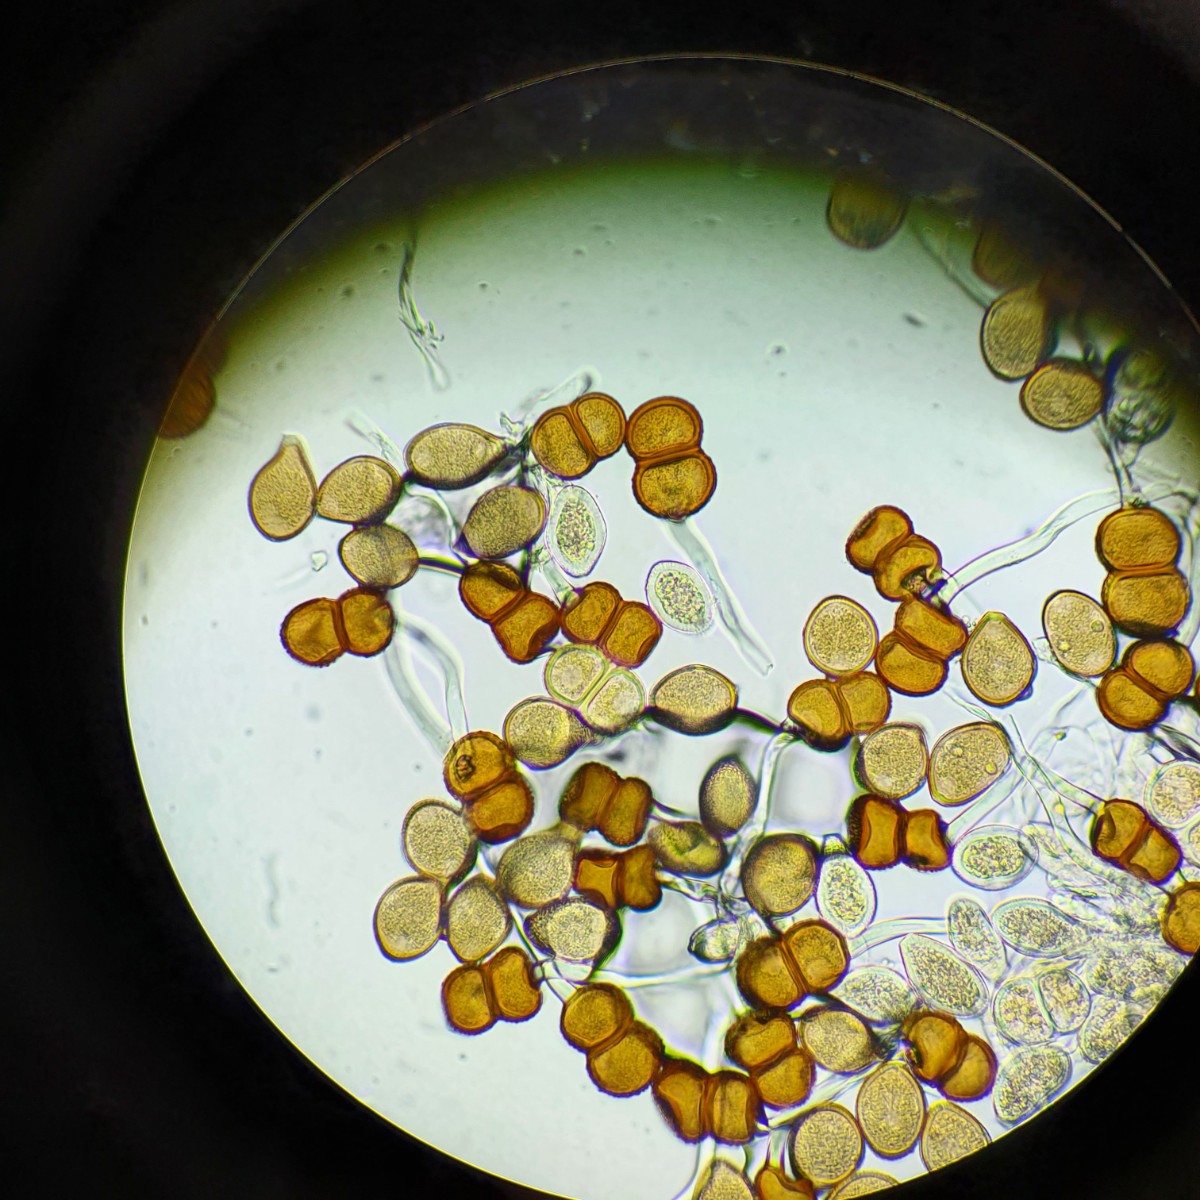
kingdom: Fungi
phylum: Basidiomycota
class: Pucciniomycetes
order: Pucciniales
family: Pucciniaceae
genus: Cumminsiella
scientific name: Cumminsiella mirabilissima
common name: mahonierust
